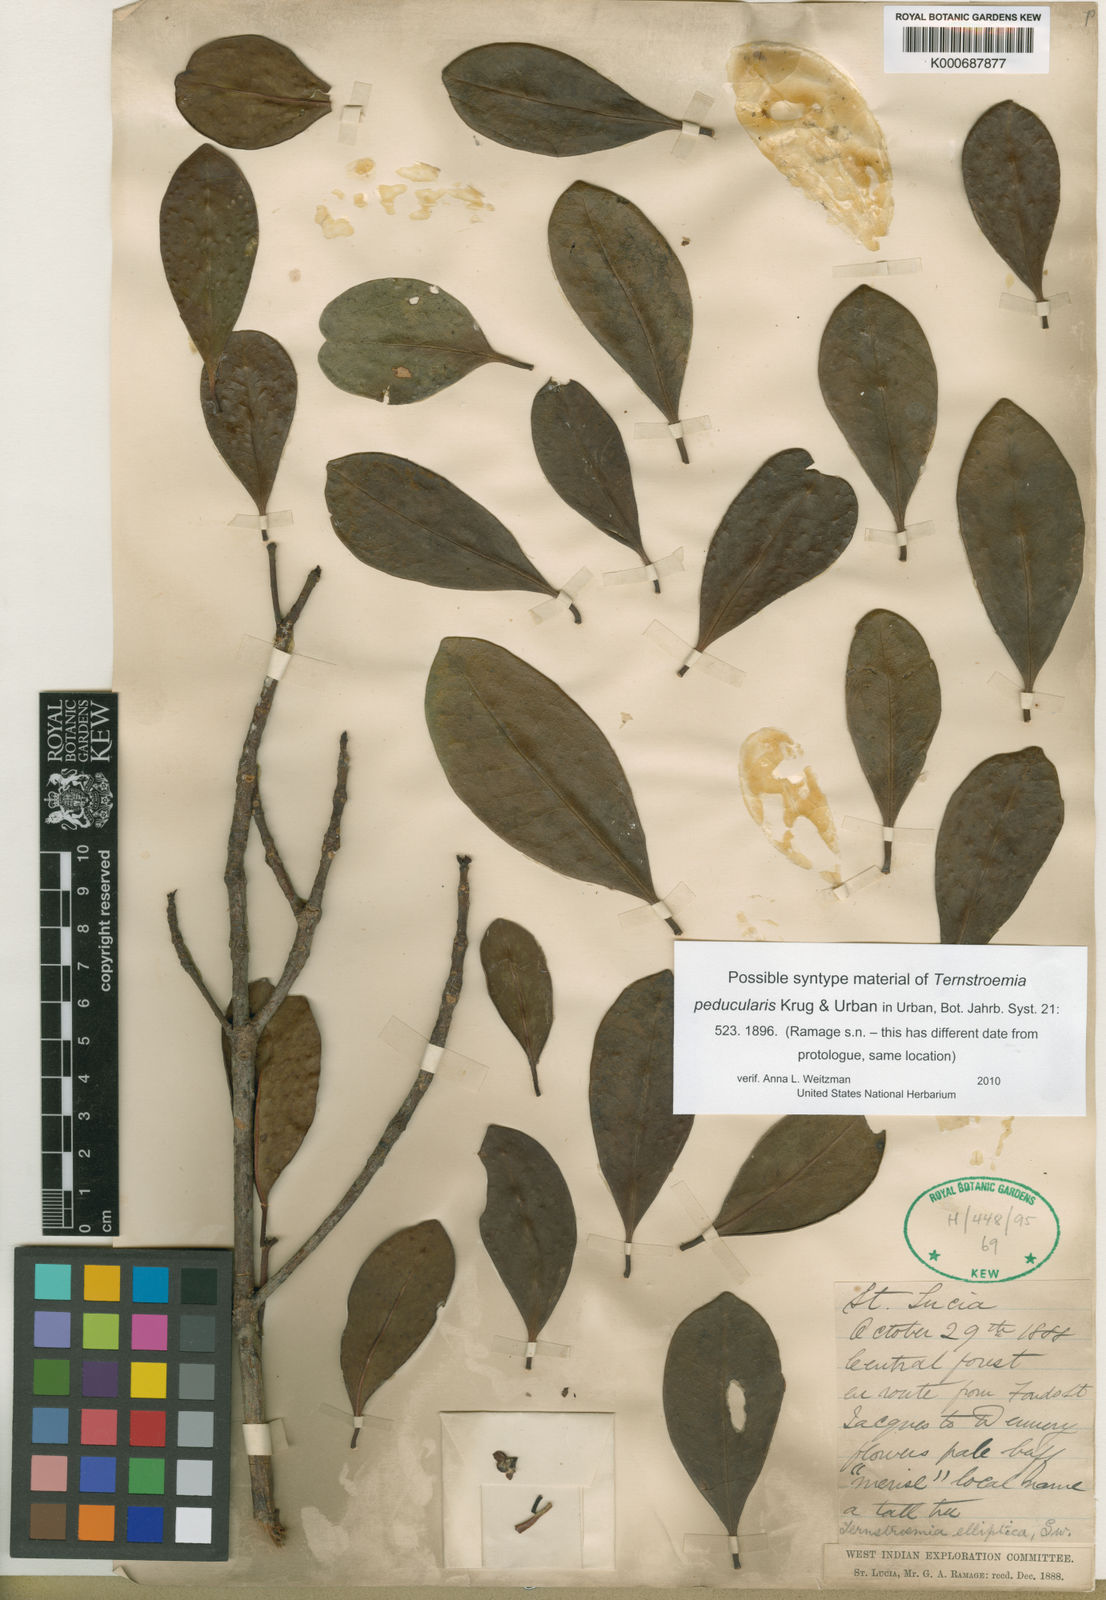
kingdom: Plantae
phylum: Tracheophyta
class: Magnoliopsida
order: Ericales
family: Pentaphylacaceae
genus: Ternstroemia
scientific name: Ternstroemia
